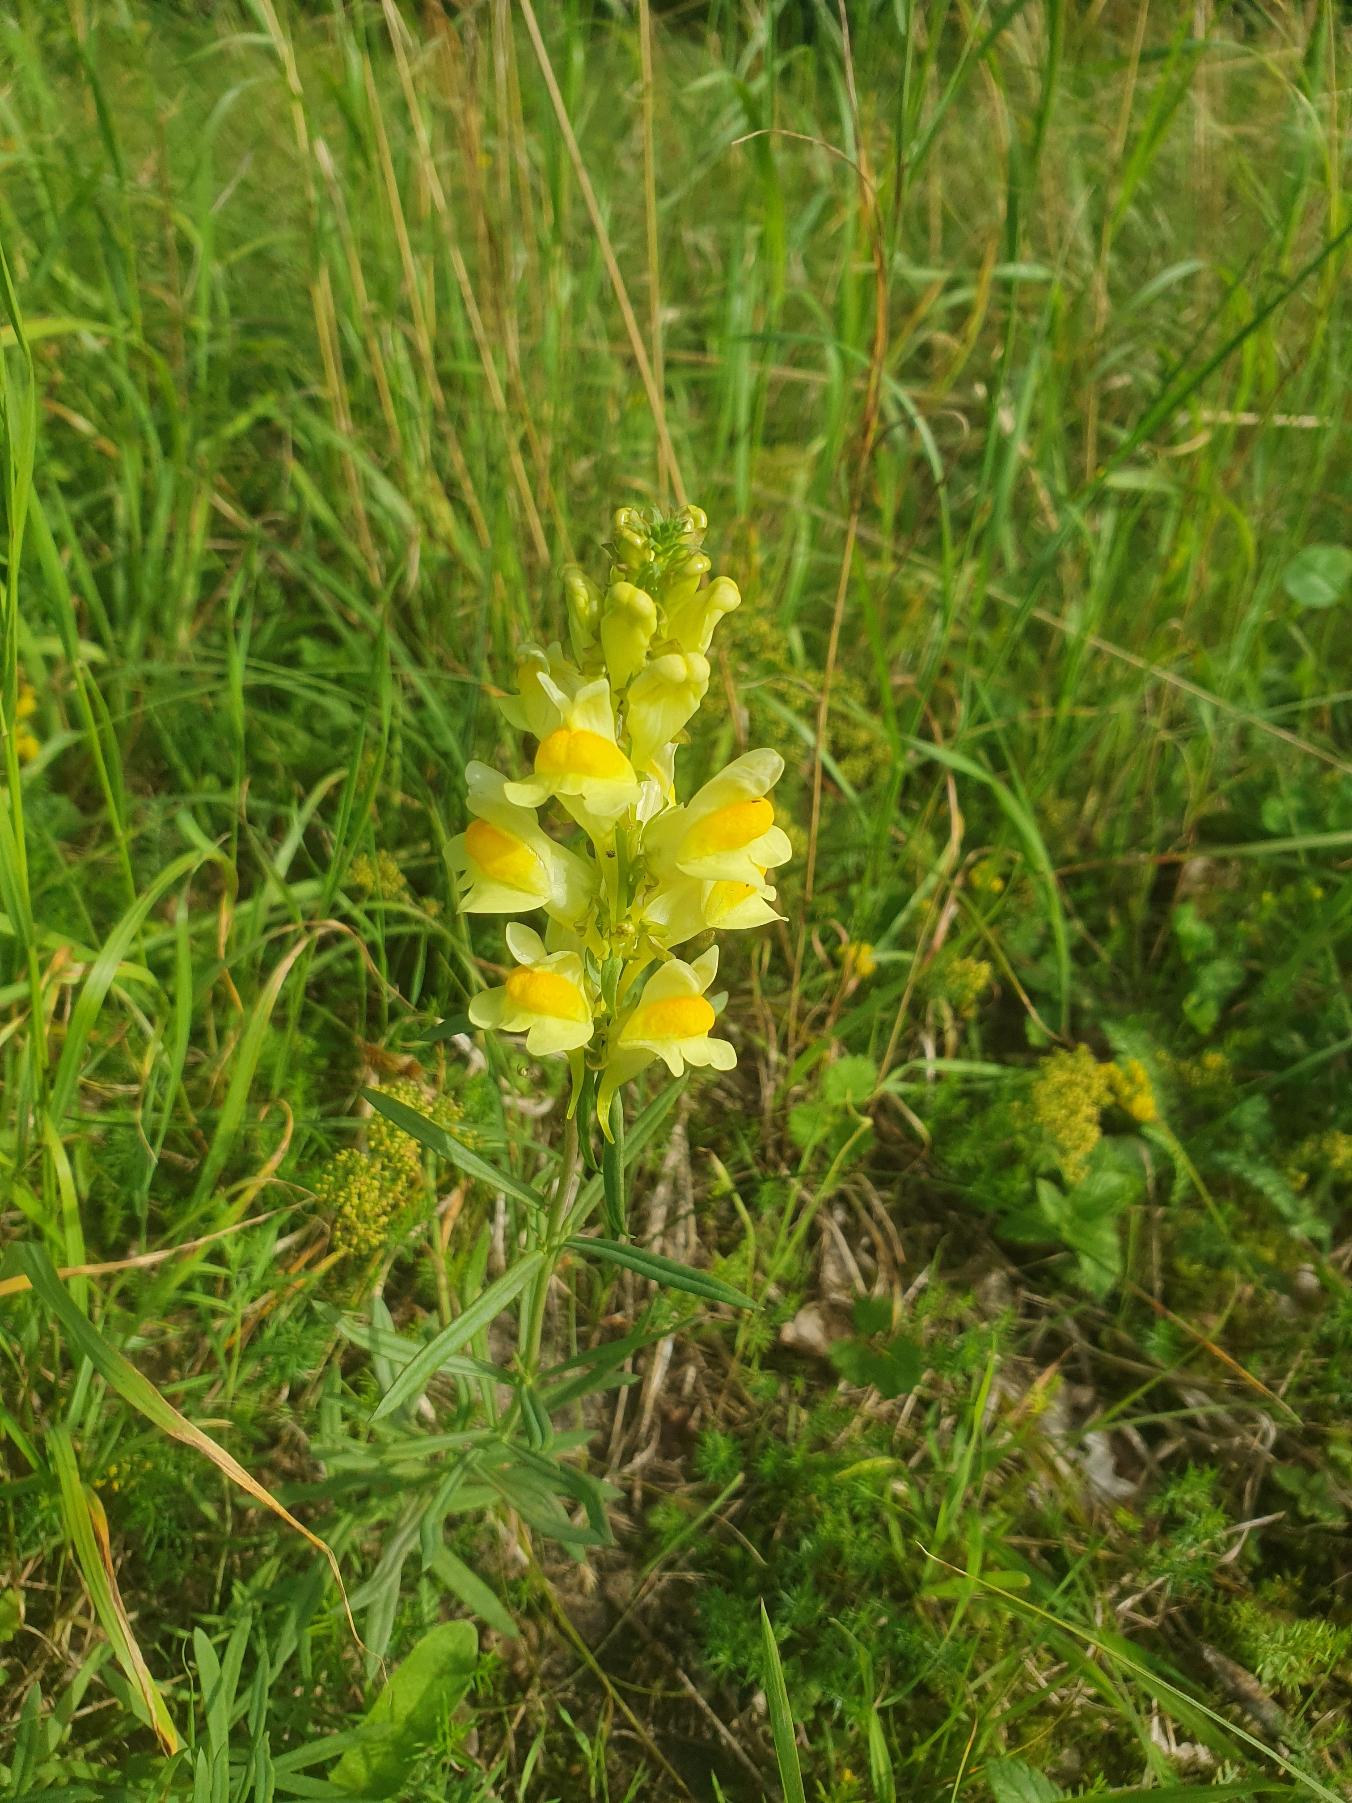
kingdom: Plantae
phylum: Tracheophyta
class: Magnoliopsida
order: Lamiales
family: Plantaginaceae
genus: Linaria
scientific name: Linaria vulgaris
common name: Almindelig torskemund
